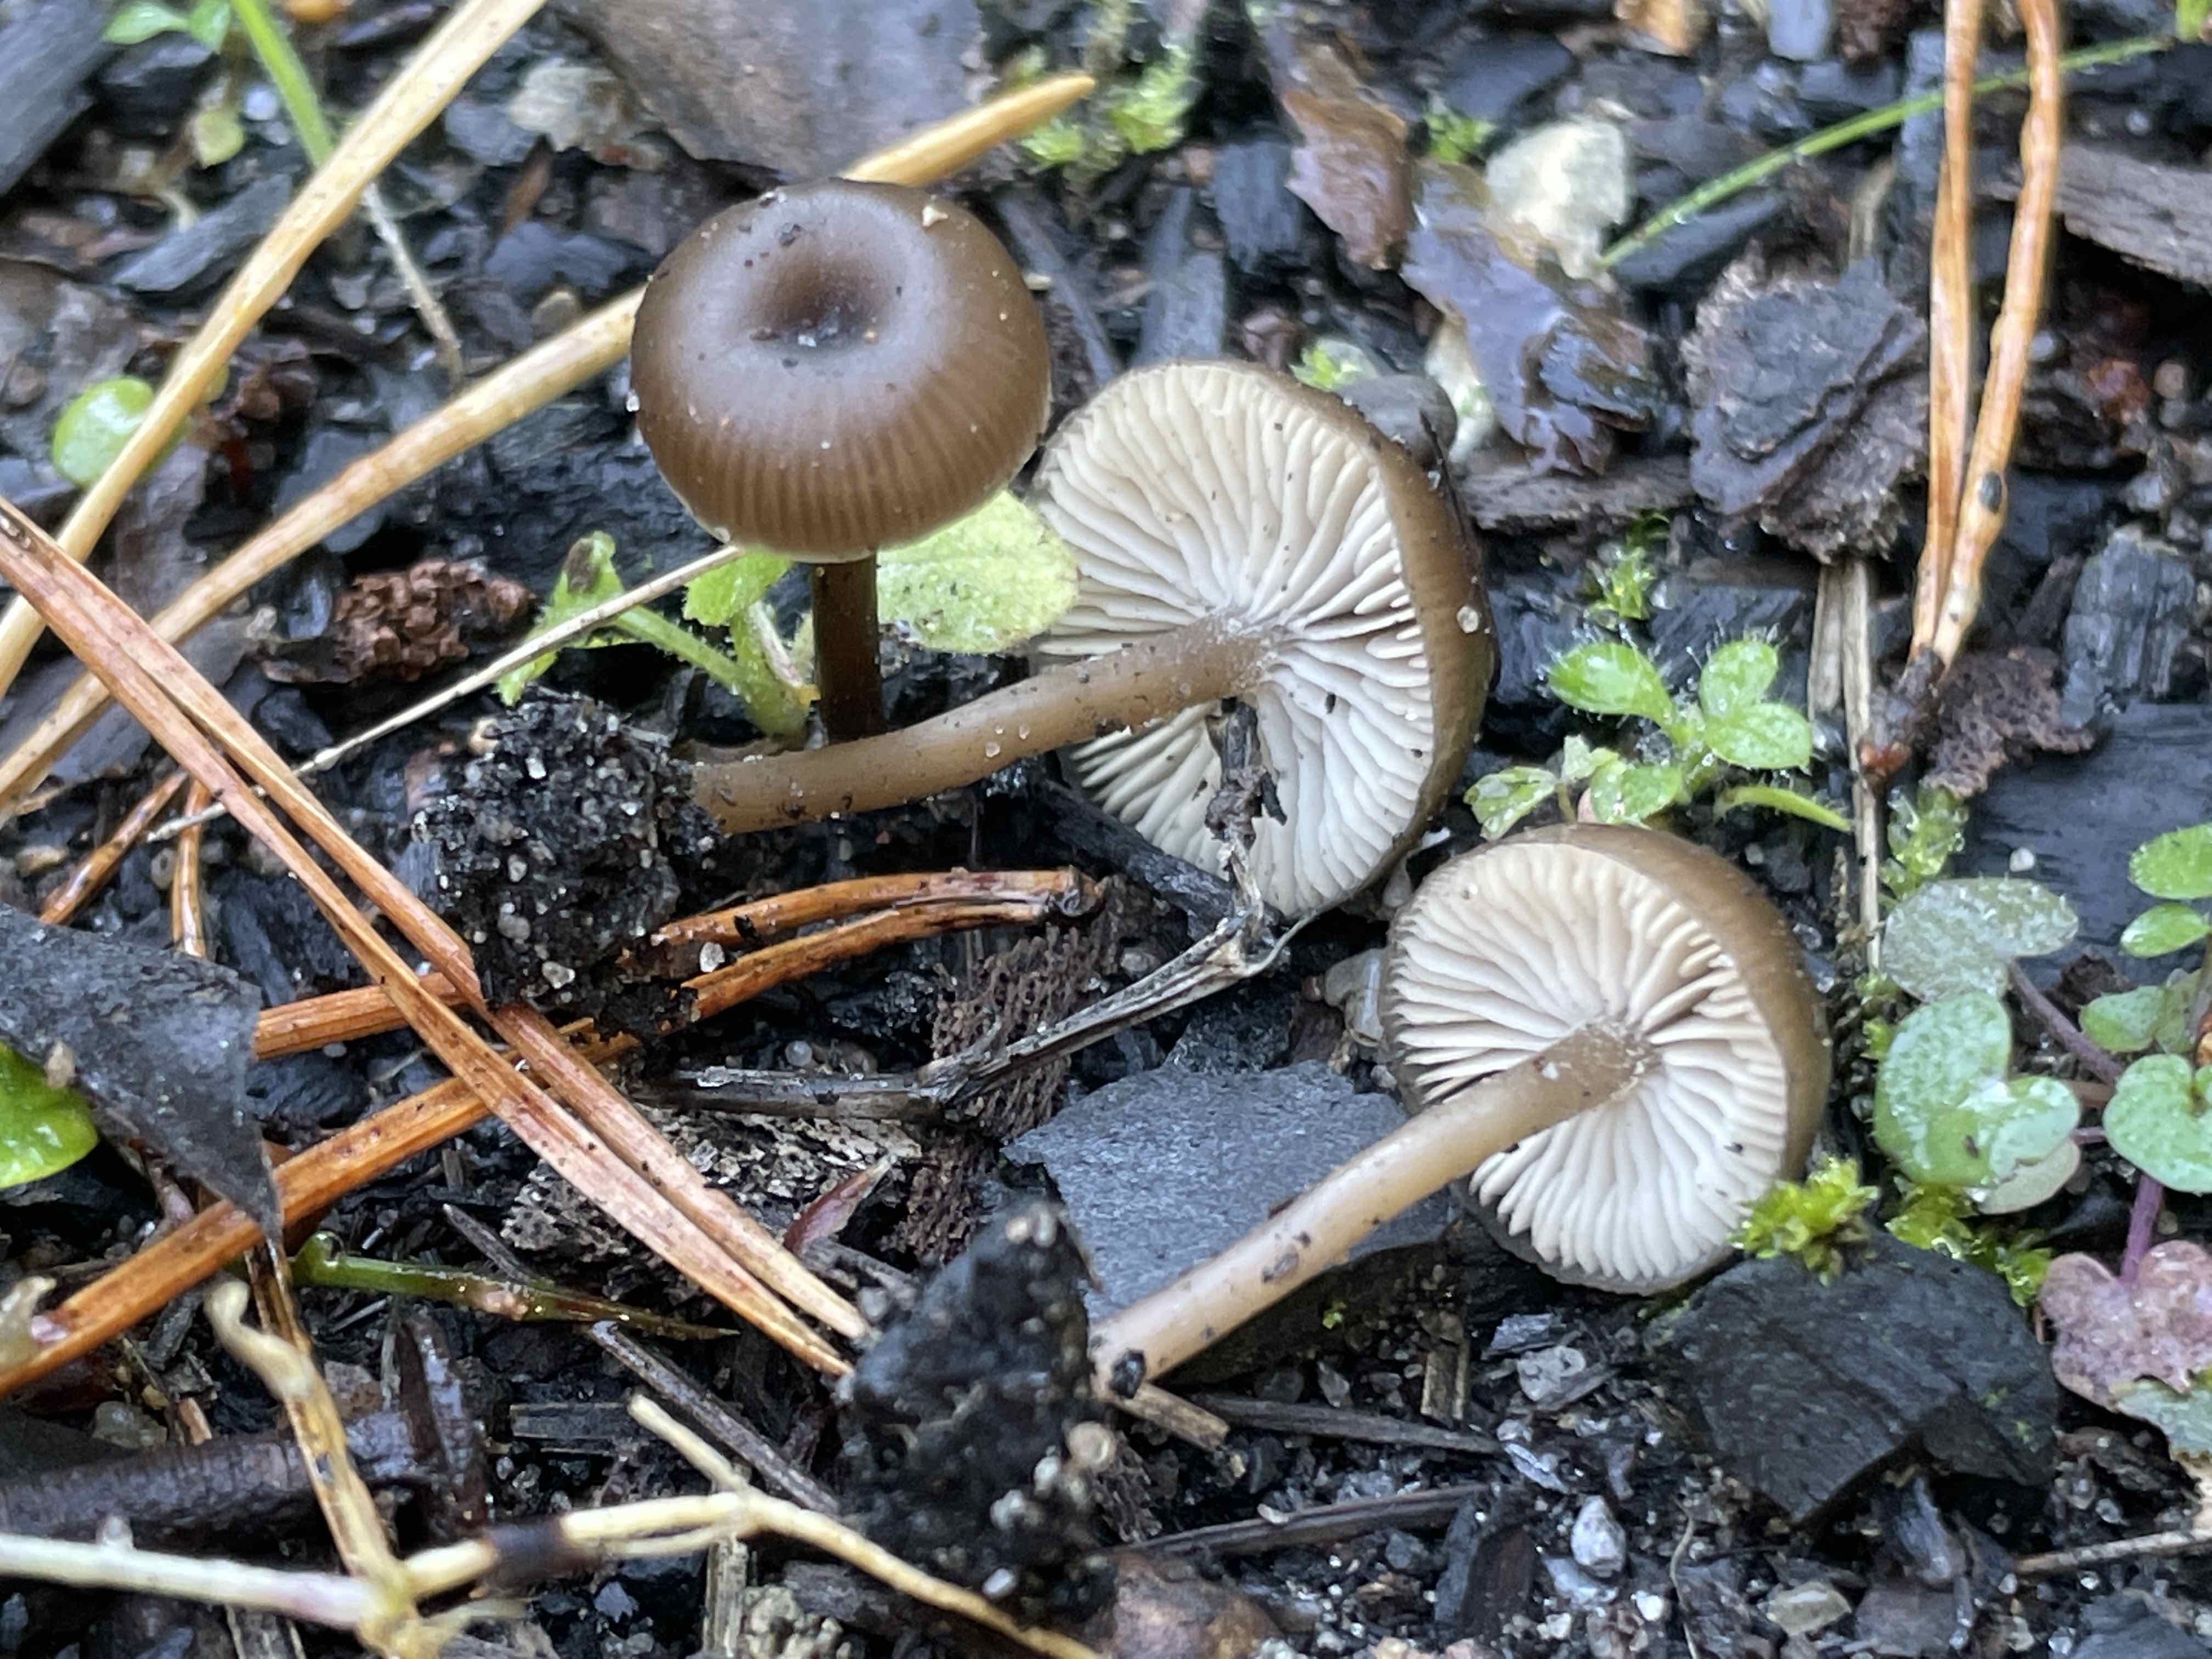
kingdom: Fungi
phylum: Basidiomycota
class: Agaricomycetes
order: Agaricales
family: Tricholomataceae
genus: Myxomphalia
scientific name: Myxomphalia maura
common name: kulhat
